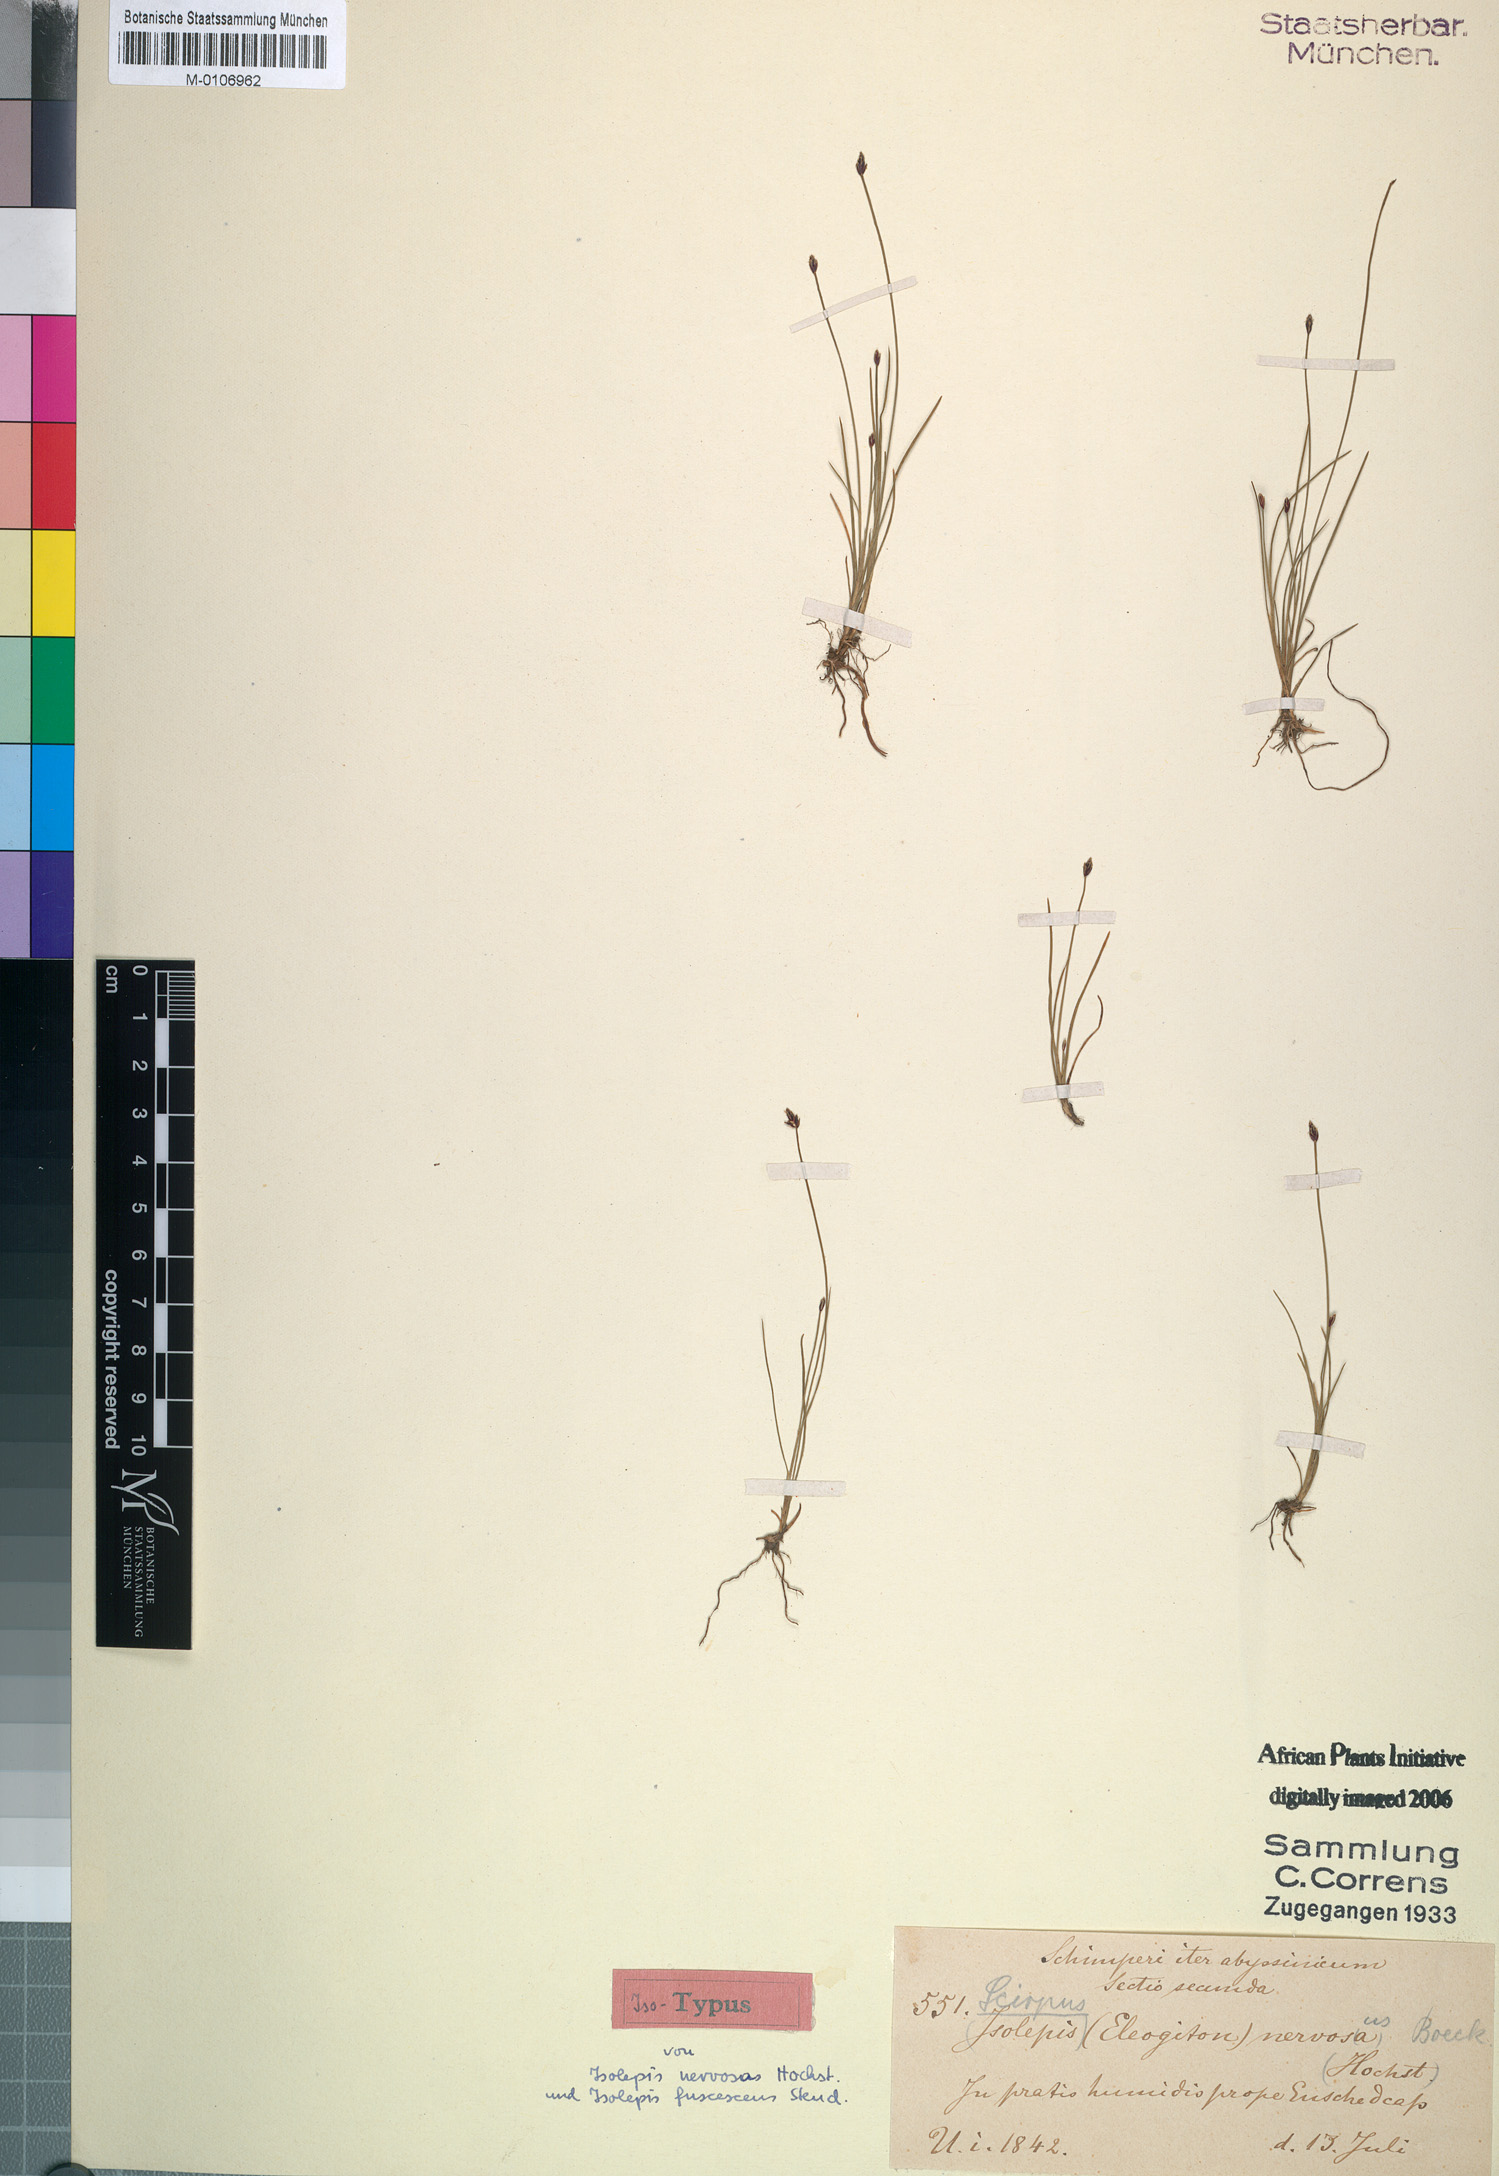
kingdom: Plantae
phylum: Tracheophyta
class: Liliopsida
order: Poales
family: Cyperaceae
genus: Isolepis
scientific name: Isolepis fluitans
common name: Floating club-rush
